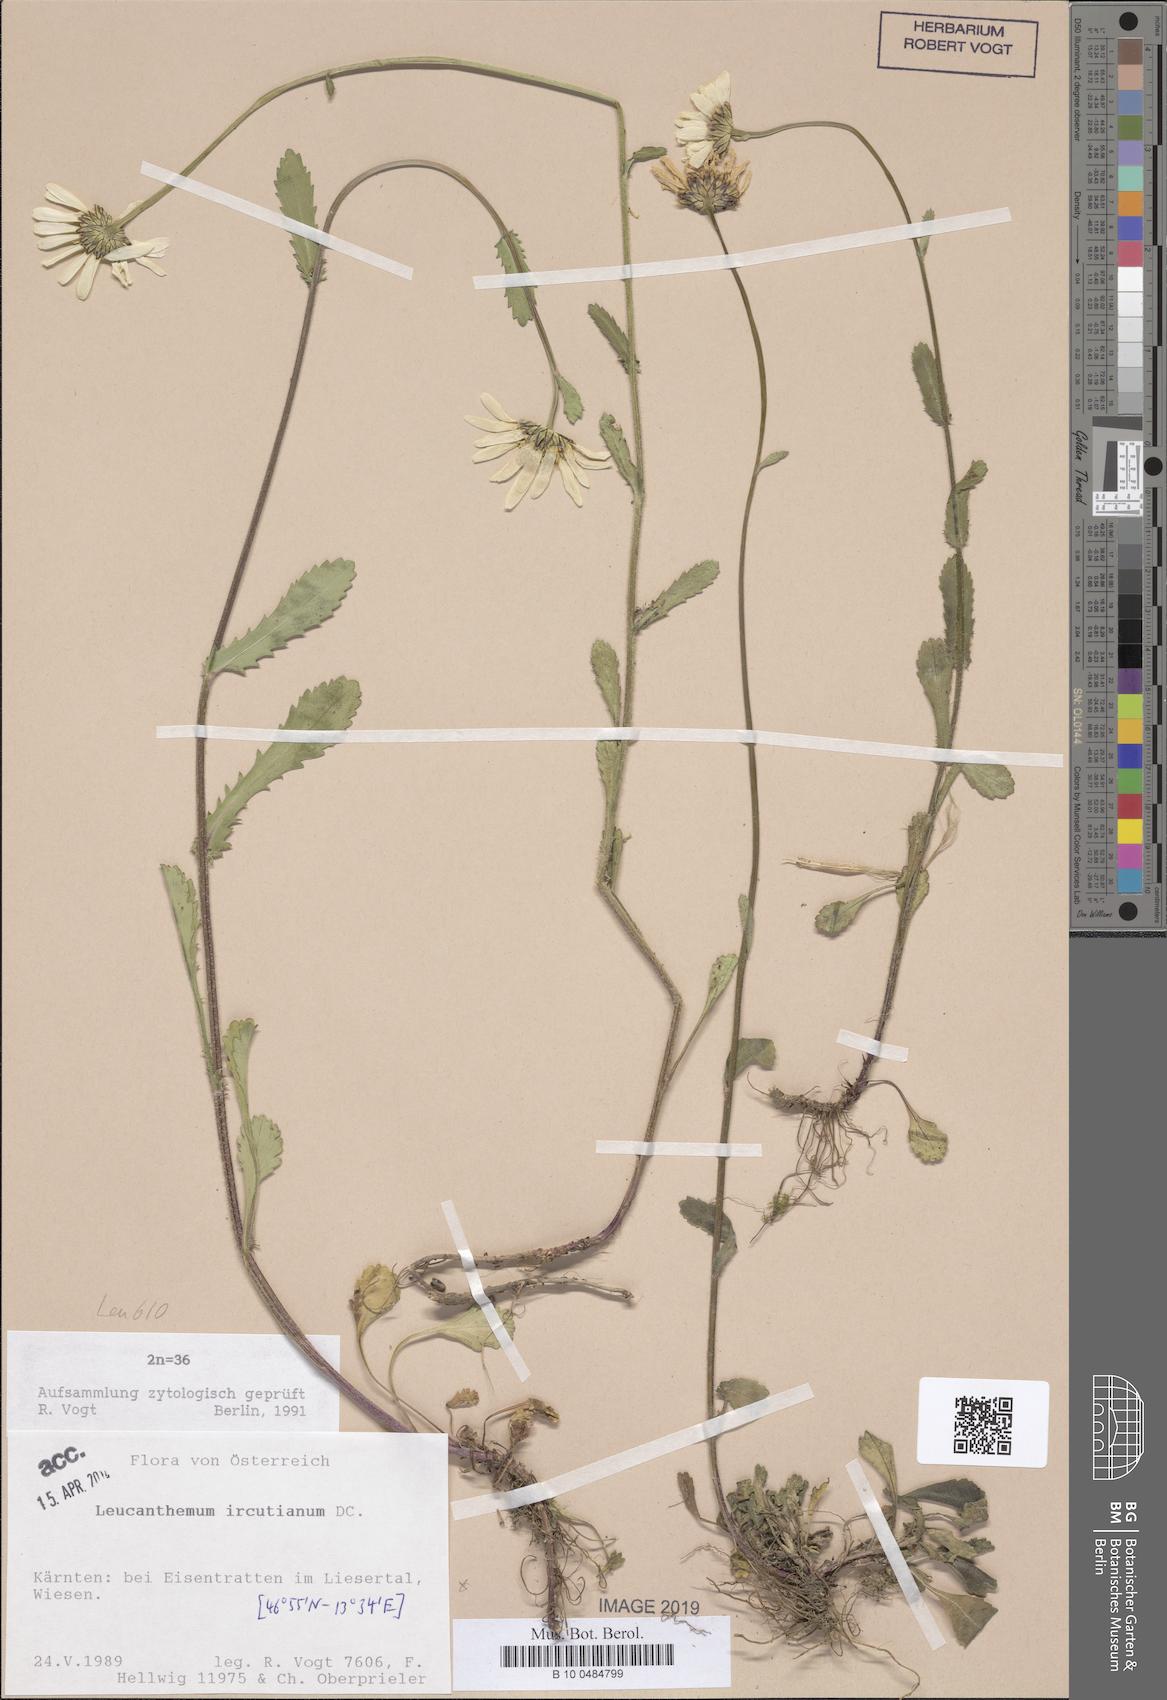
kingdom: Plantae
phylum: Tracheophyta
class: Magnoliopsida
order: Asterales
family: Asteraceae
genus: Leucanthemum
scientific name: Leucanthemum ircutianum
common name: Daisy
